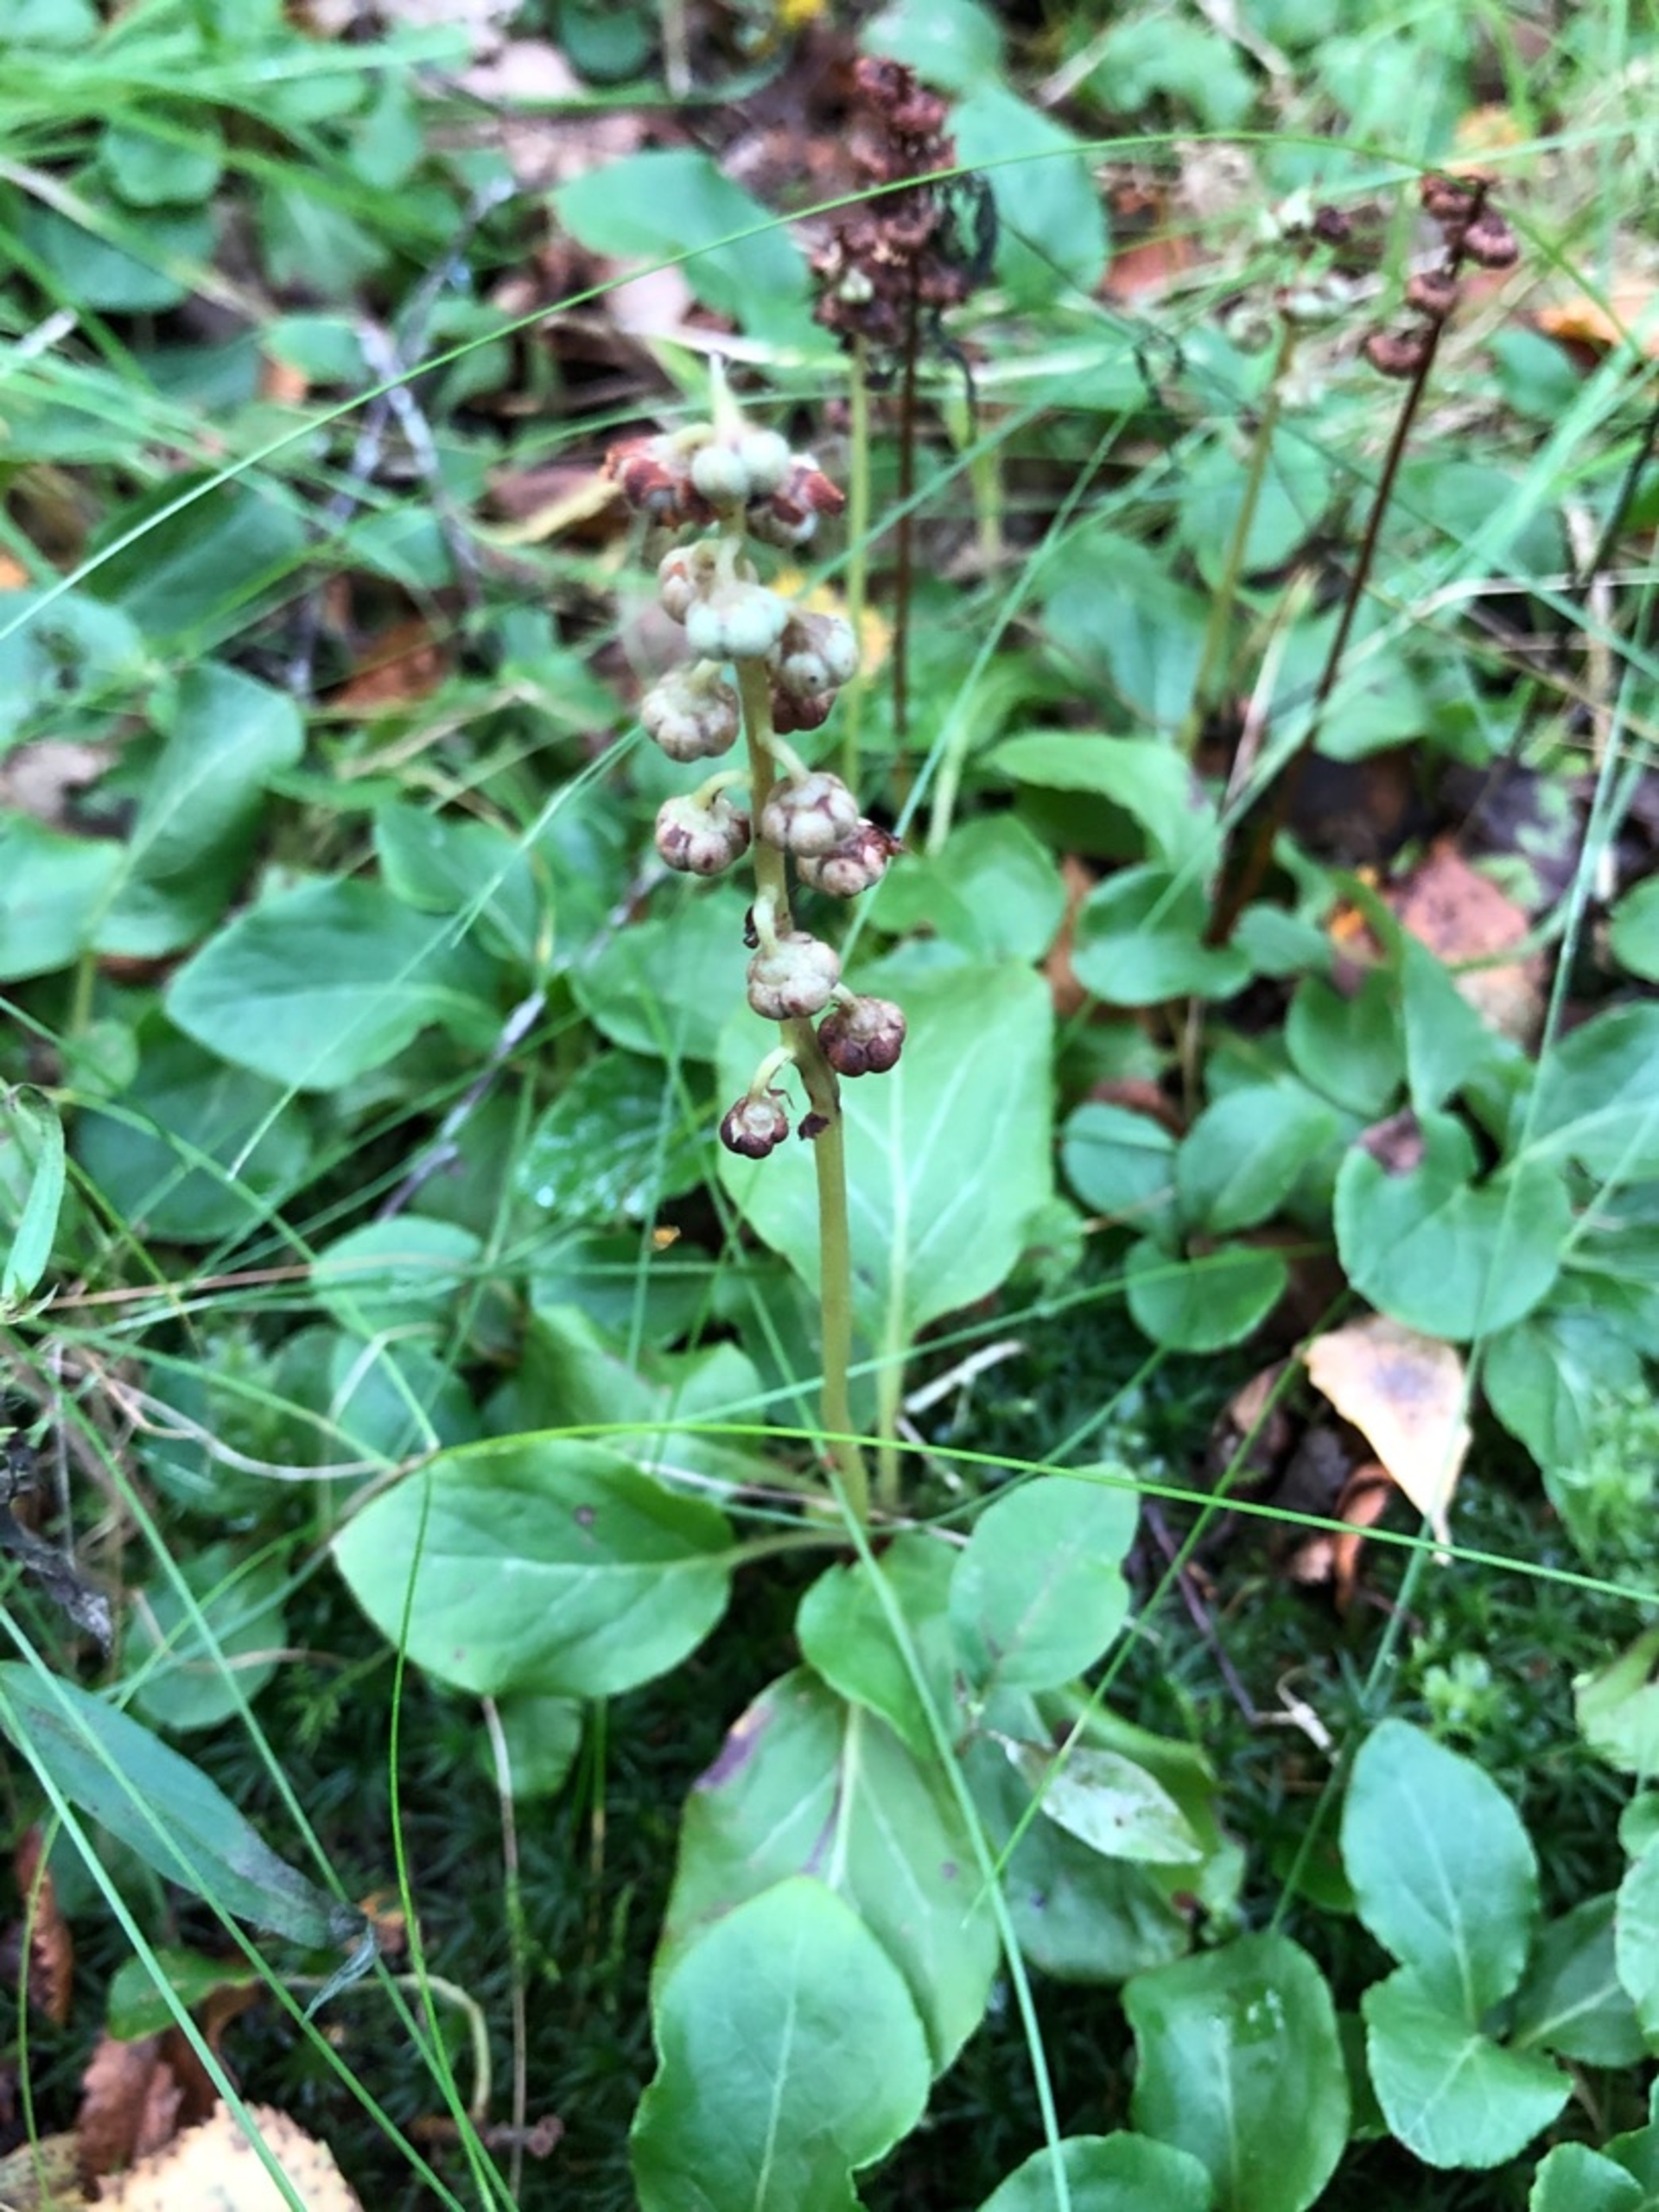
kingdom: Plantae
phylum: Tracheophyta
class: Magnoliopsida
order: Ericales
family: Ericaceae
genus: Pyrola
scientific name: Pyrola minor
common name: Liden vintergrøn
